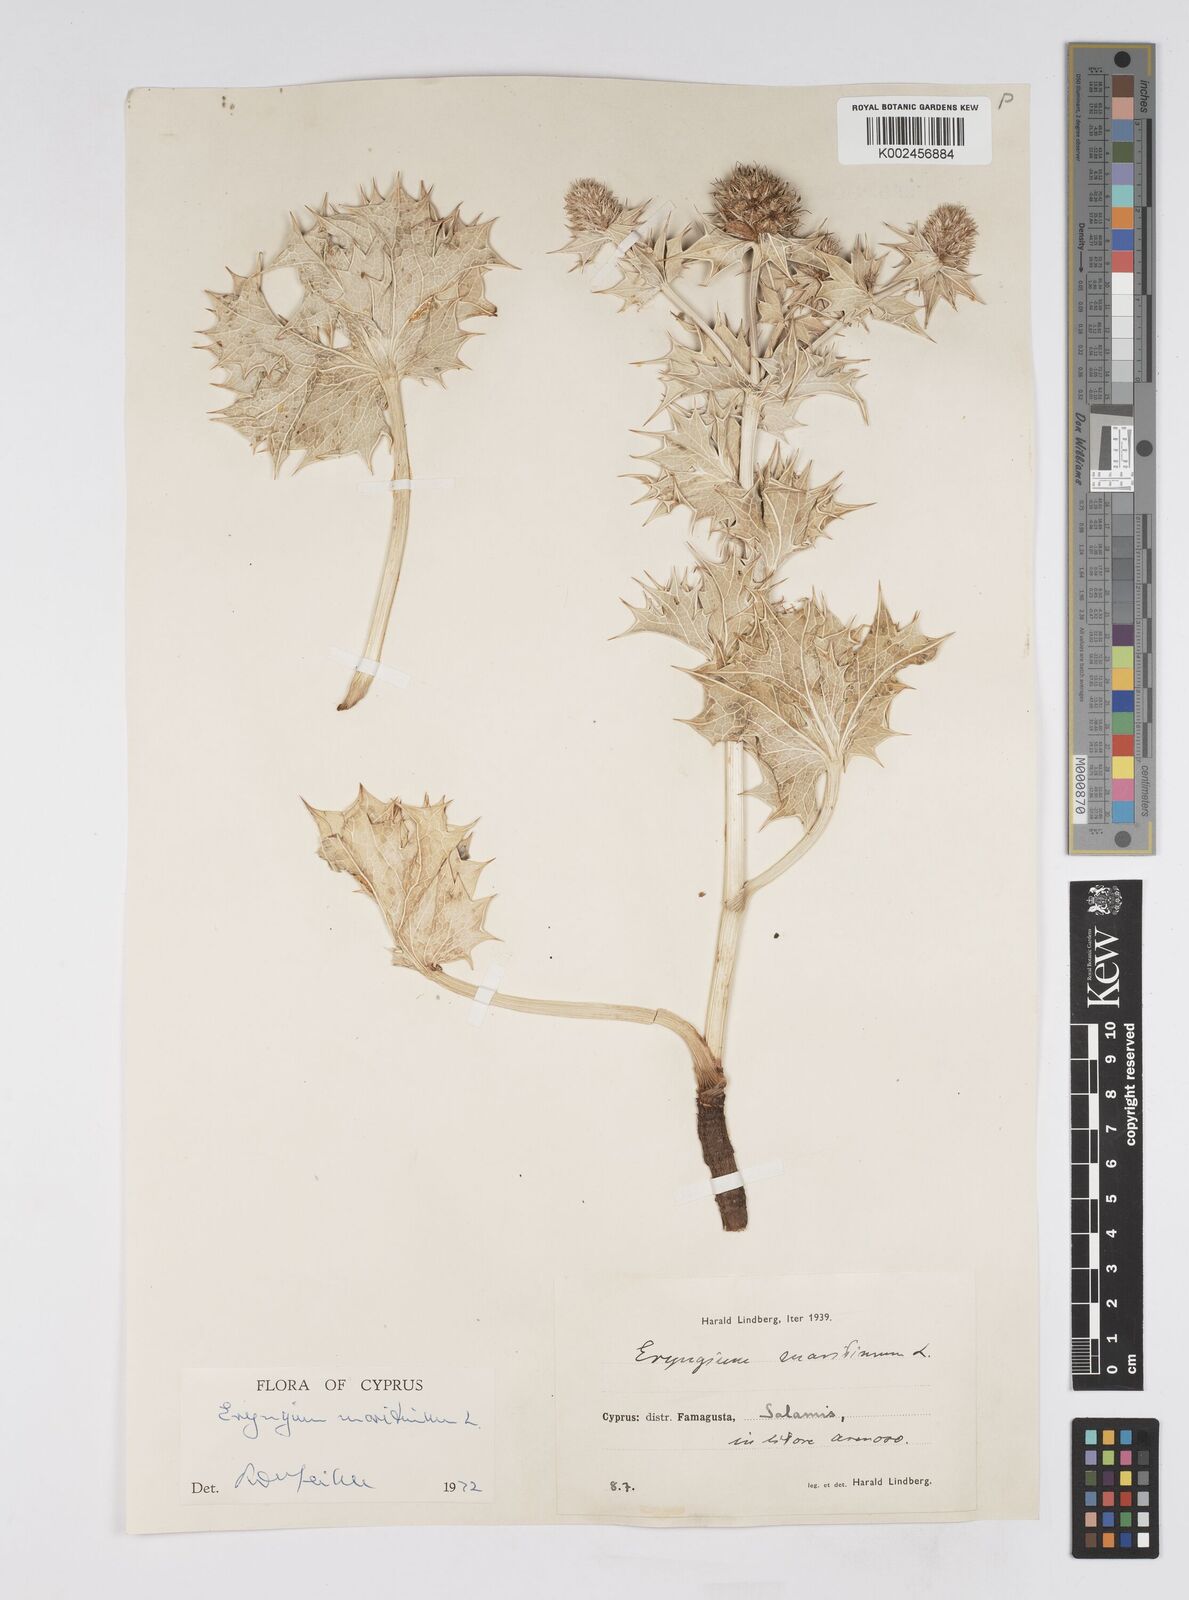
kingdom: Plantae
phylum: Tracheophyta
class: Magnoliopsida
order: Apiales
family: Apiaceae
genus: Eryngium
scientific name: Eryngium maritimum
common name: Sea-holly
